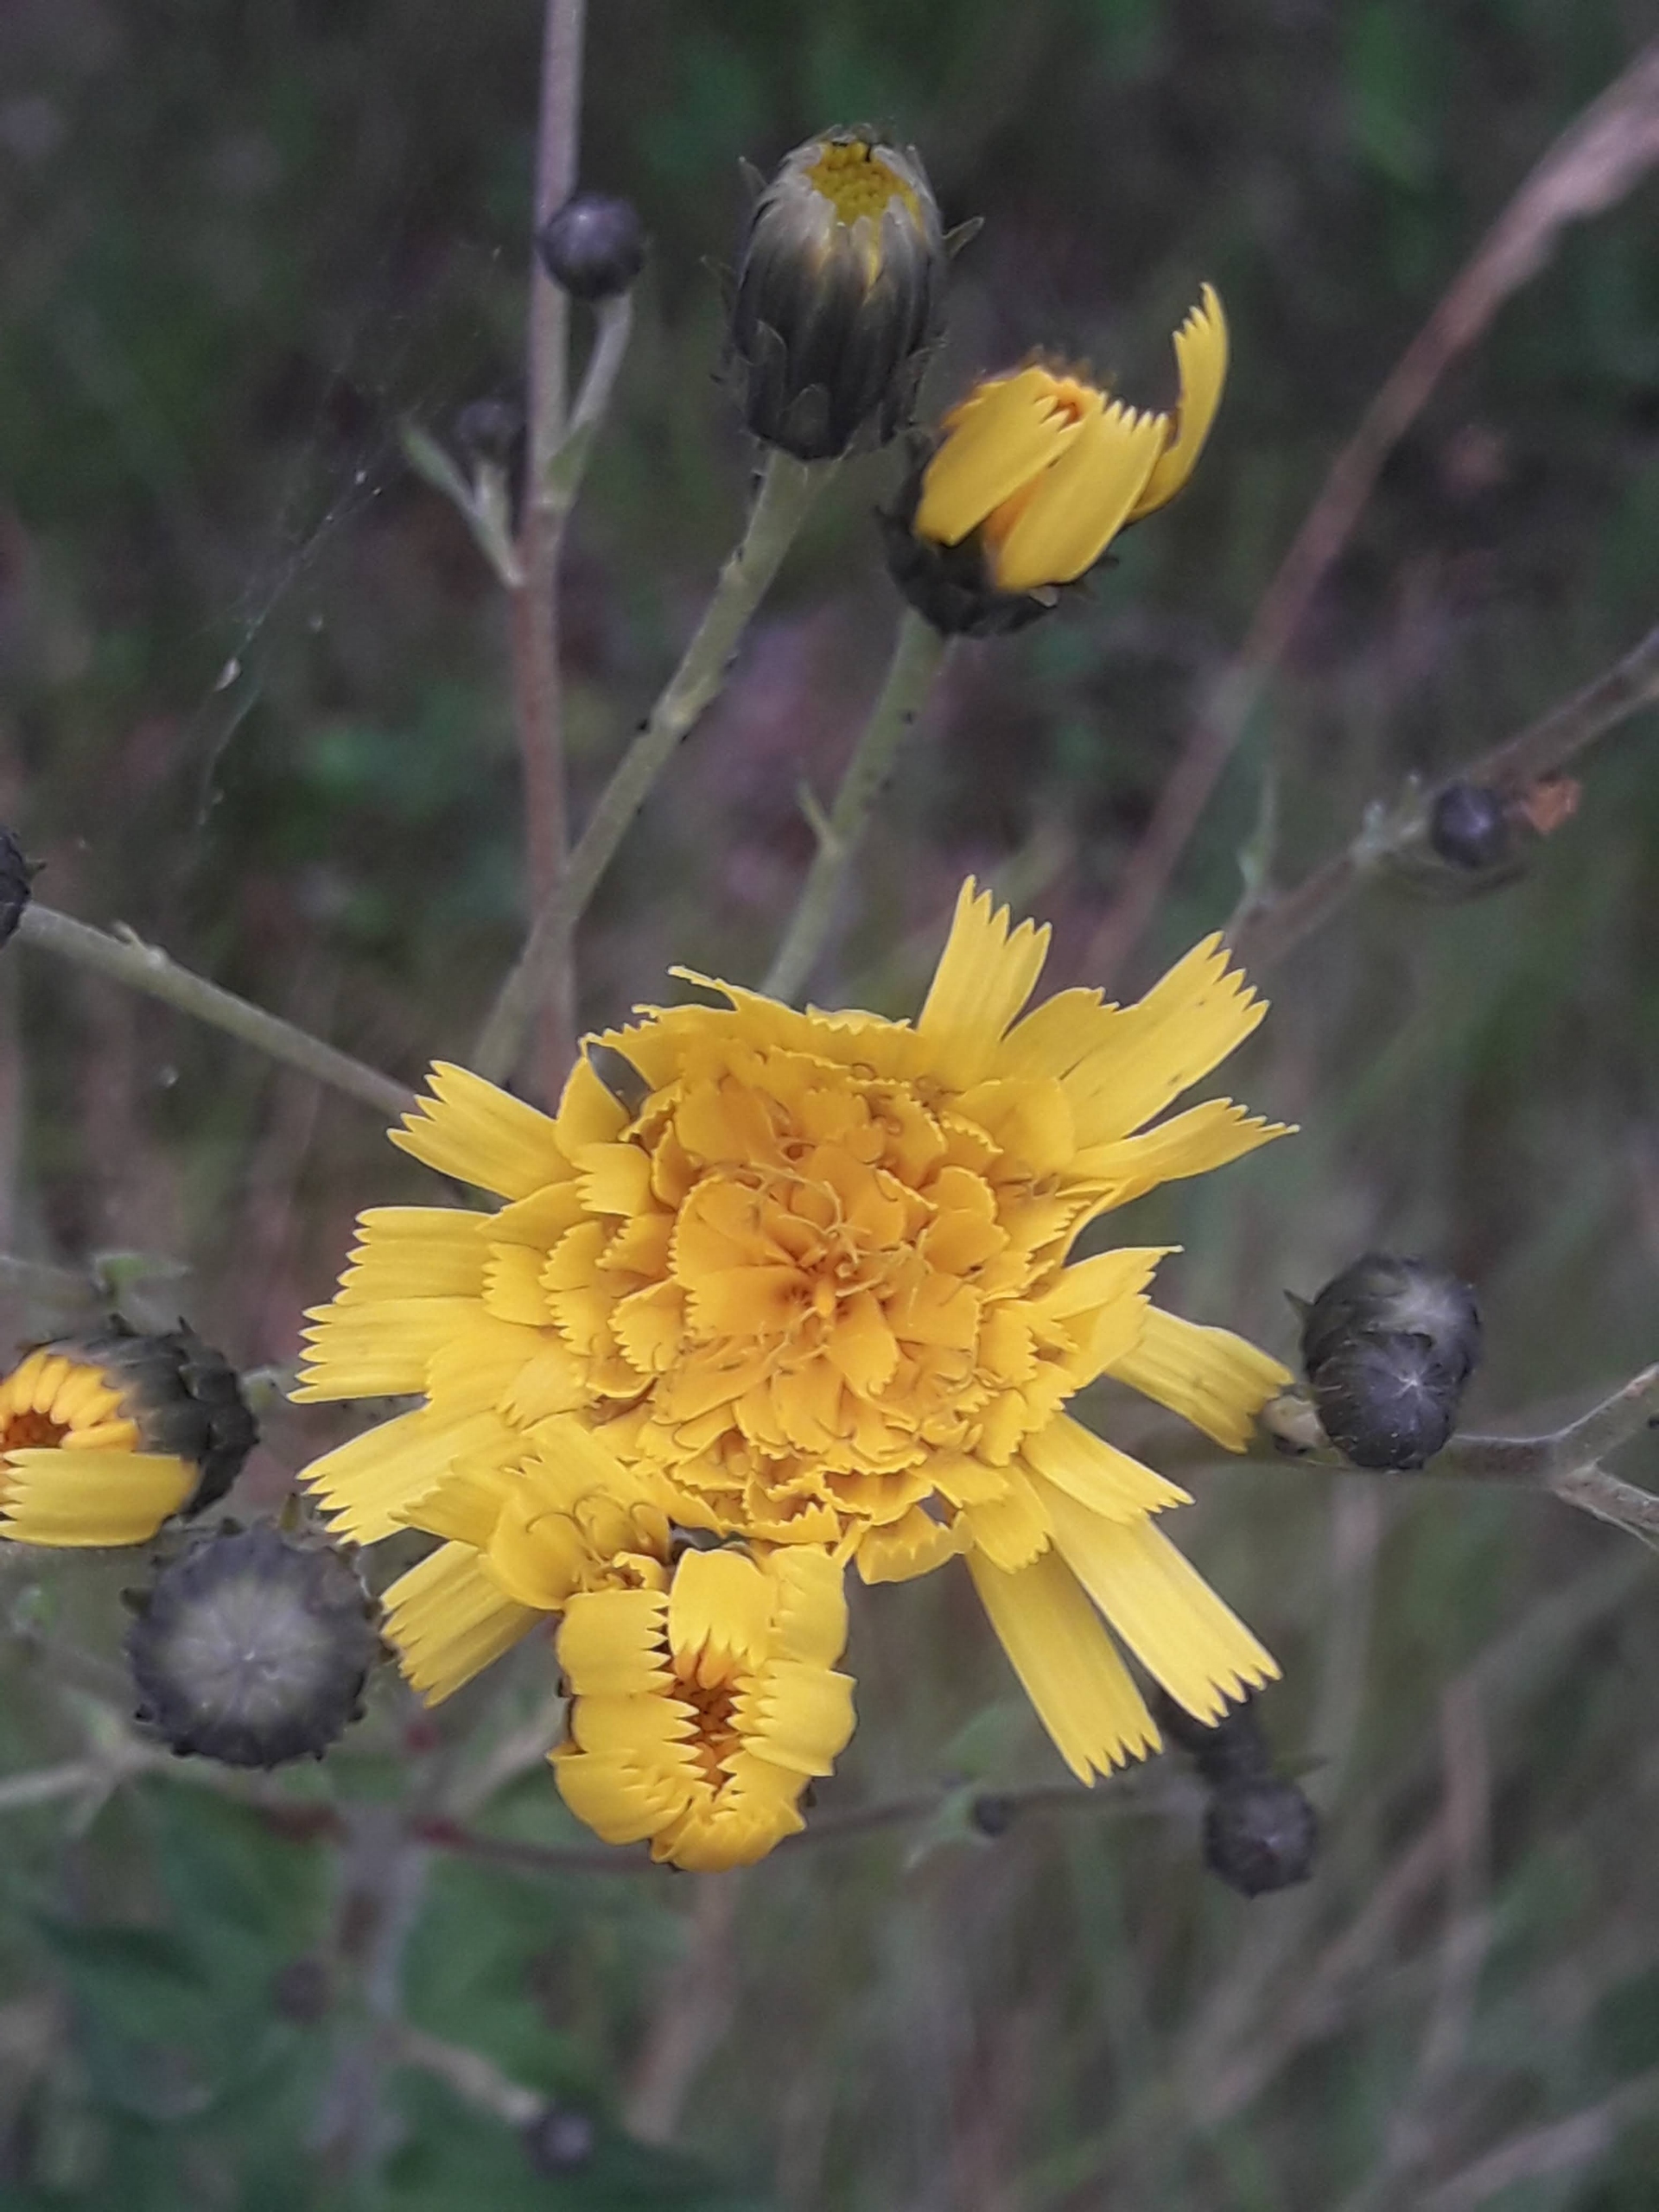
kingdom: Plantae
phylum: Tracheophyta
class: Magnoliopsida
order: Asterales
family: Asteraceae
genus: Hieracium
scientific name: Hieracium umbellatum
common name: Smalbladet høgeurt
